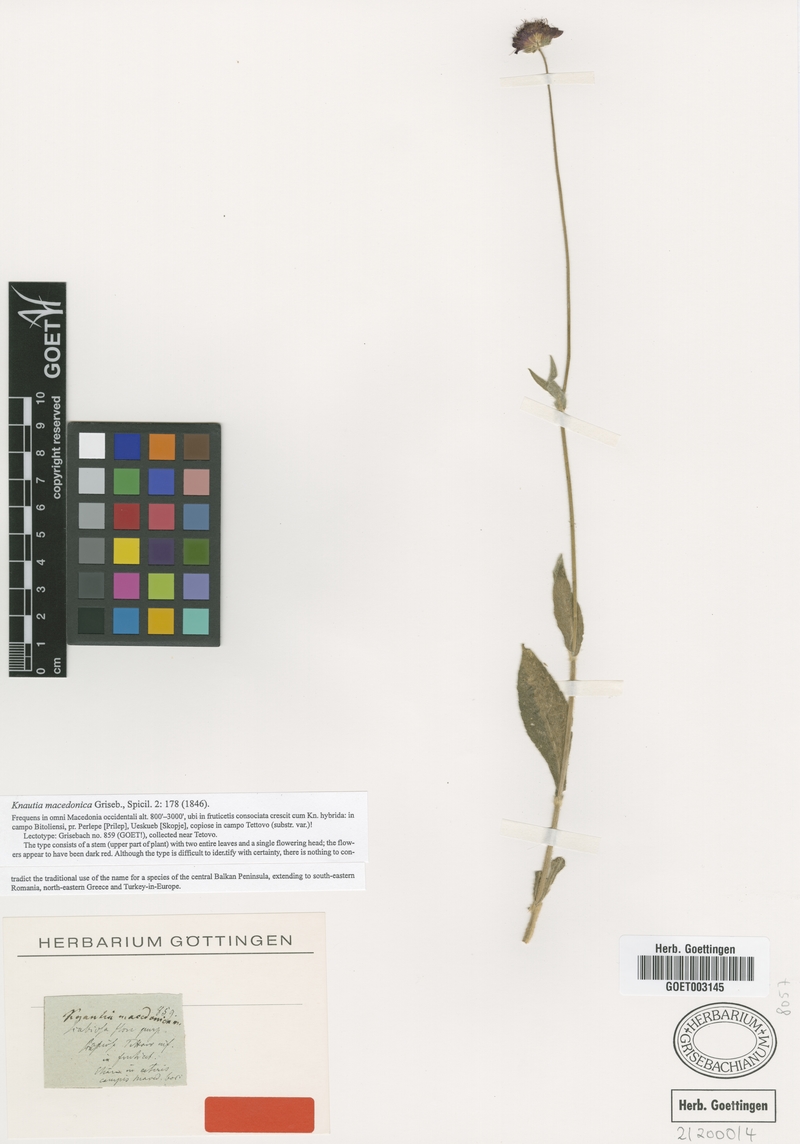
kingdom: Plantae
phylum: Tracheophyta
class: Magnoliopsida
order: Dipsacales
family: Caprifoliaceae
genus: Knautia
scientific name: Knautia macedonica
